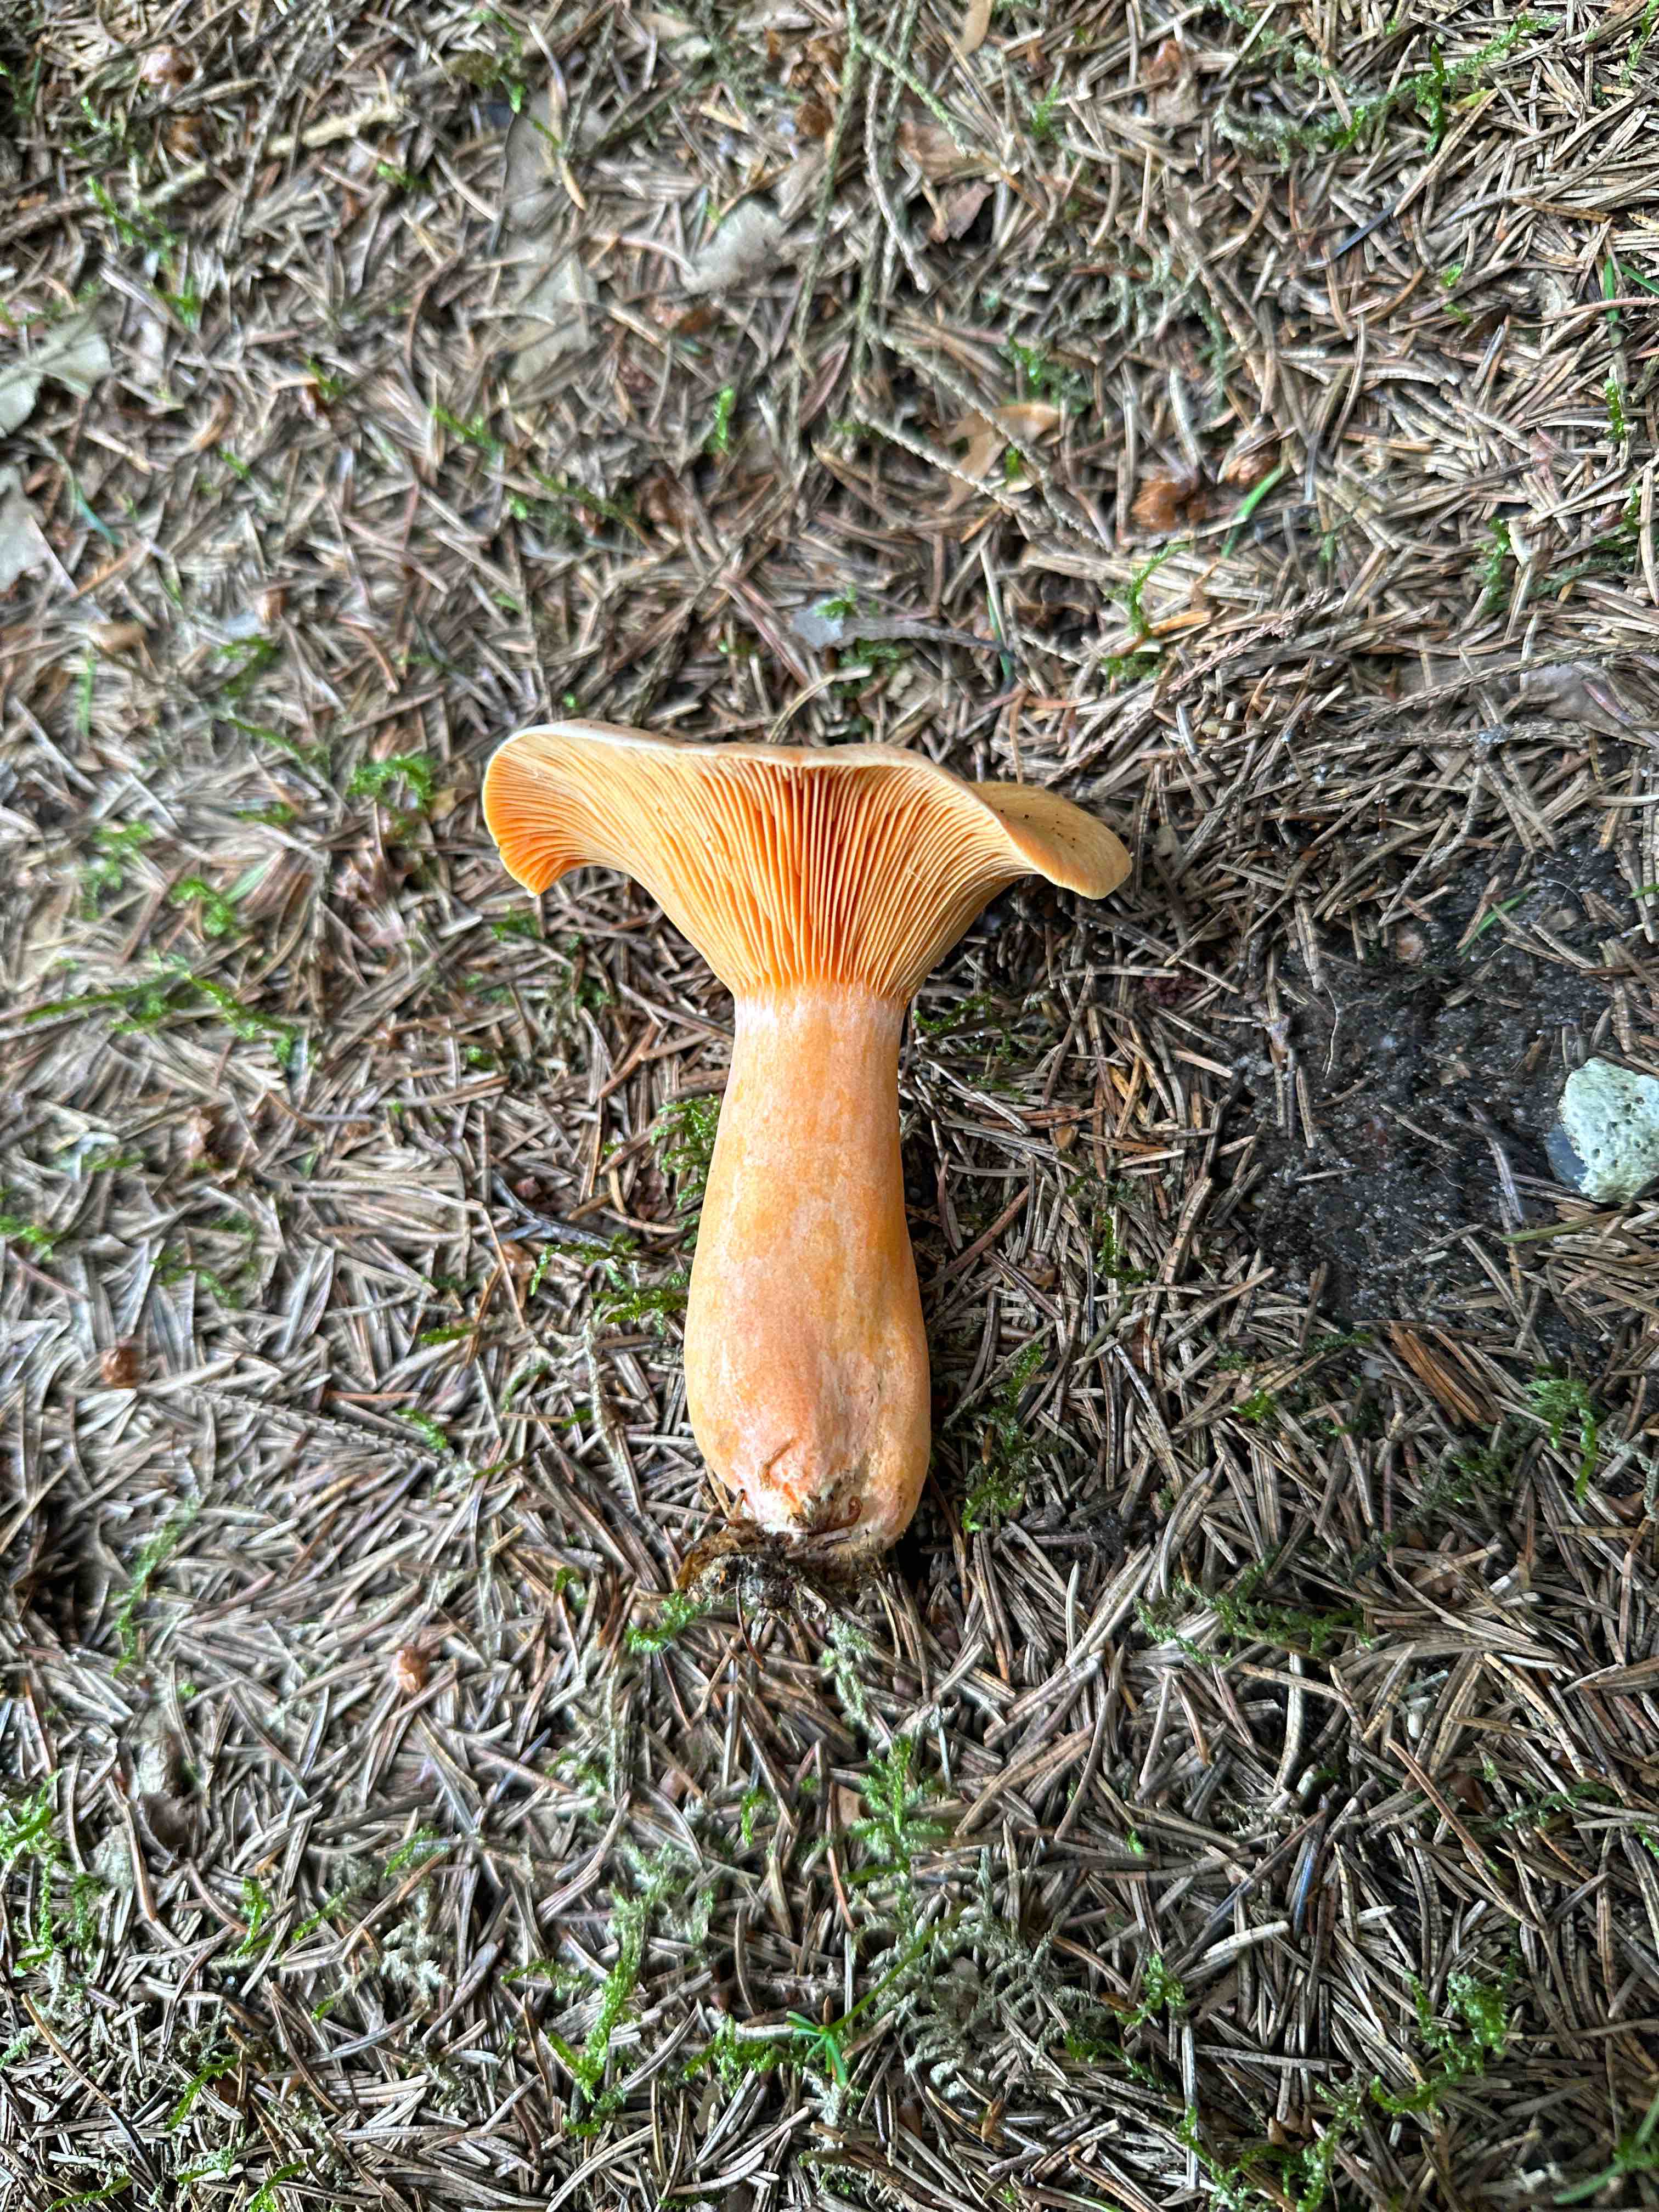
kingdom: Fungi
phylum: Basidiomycota
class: Agaricomycetes
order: Russulales
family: Russulaceae
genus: Lactarius
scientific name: Lactarius deterrimus
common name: gran-mælkehat
